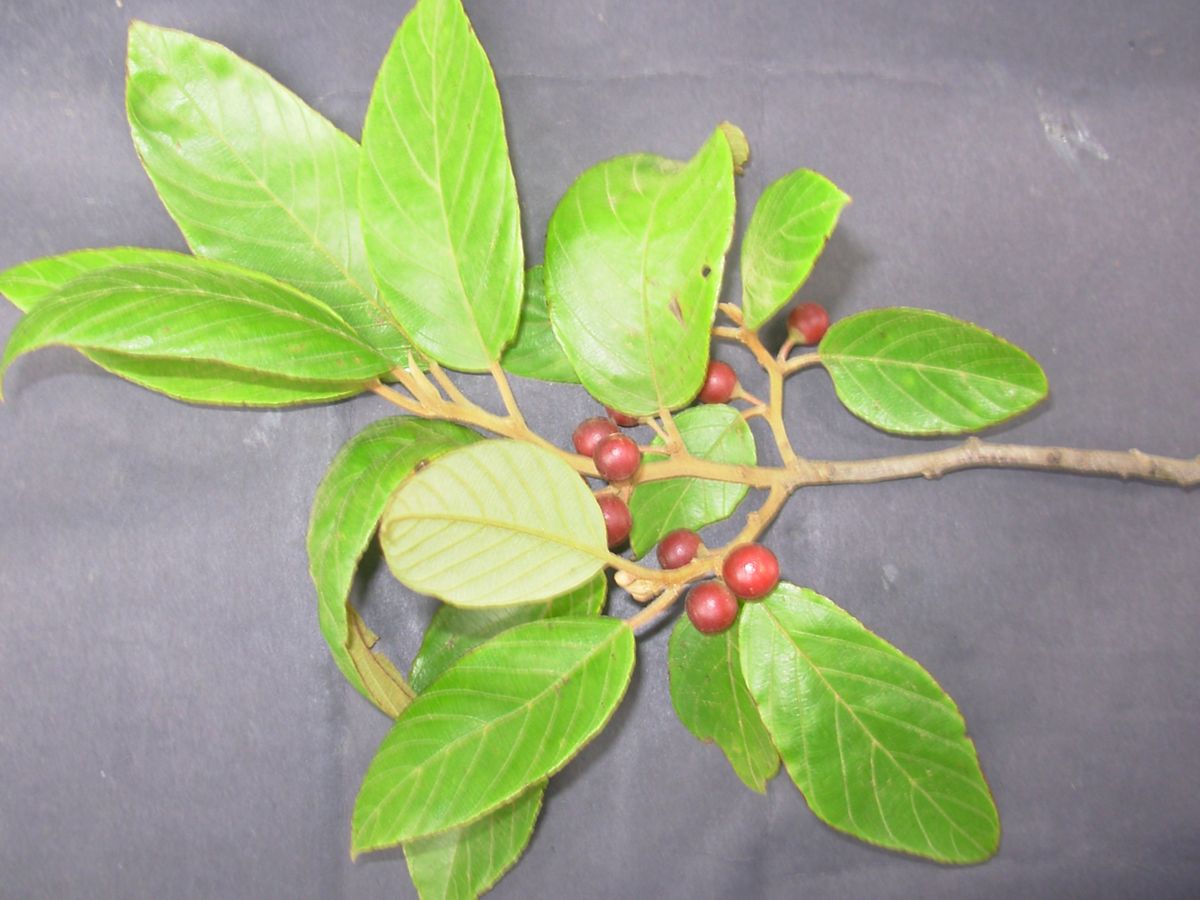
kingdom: Plantae
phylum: Tracheophyta
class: Magnoliopsida
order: Rosales
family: Rhamnaceae
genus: Frangula
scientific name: Frangula discolor
